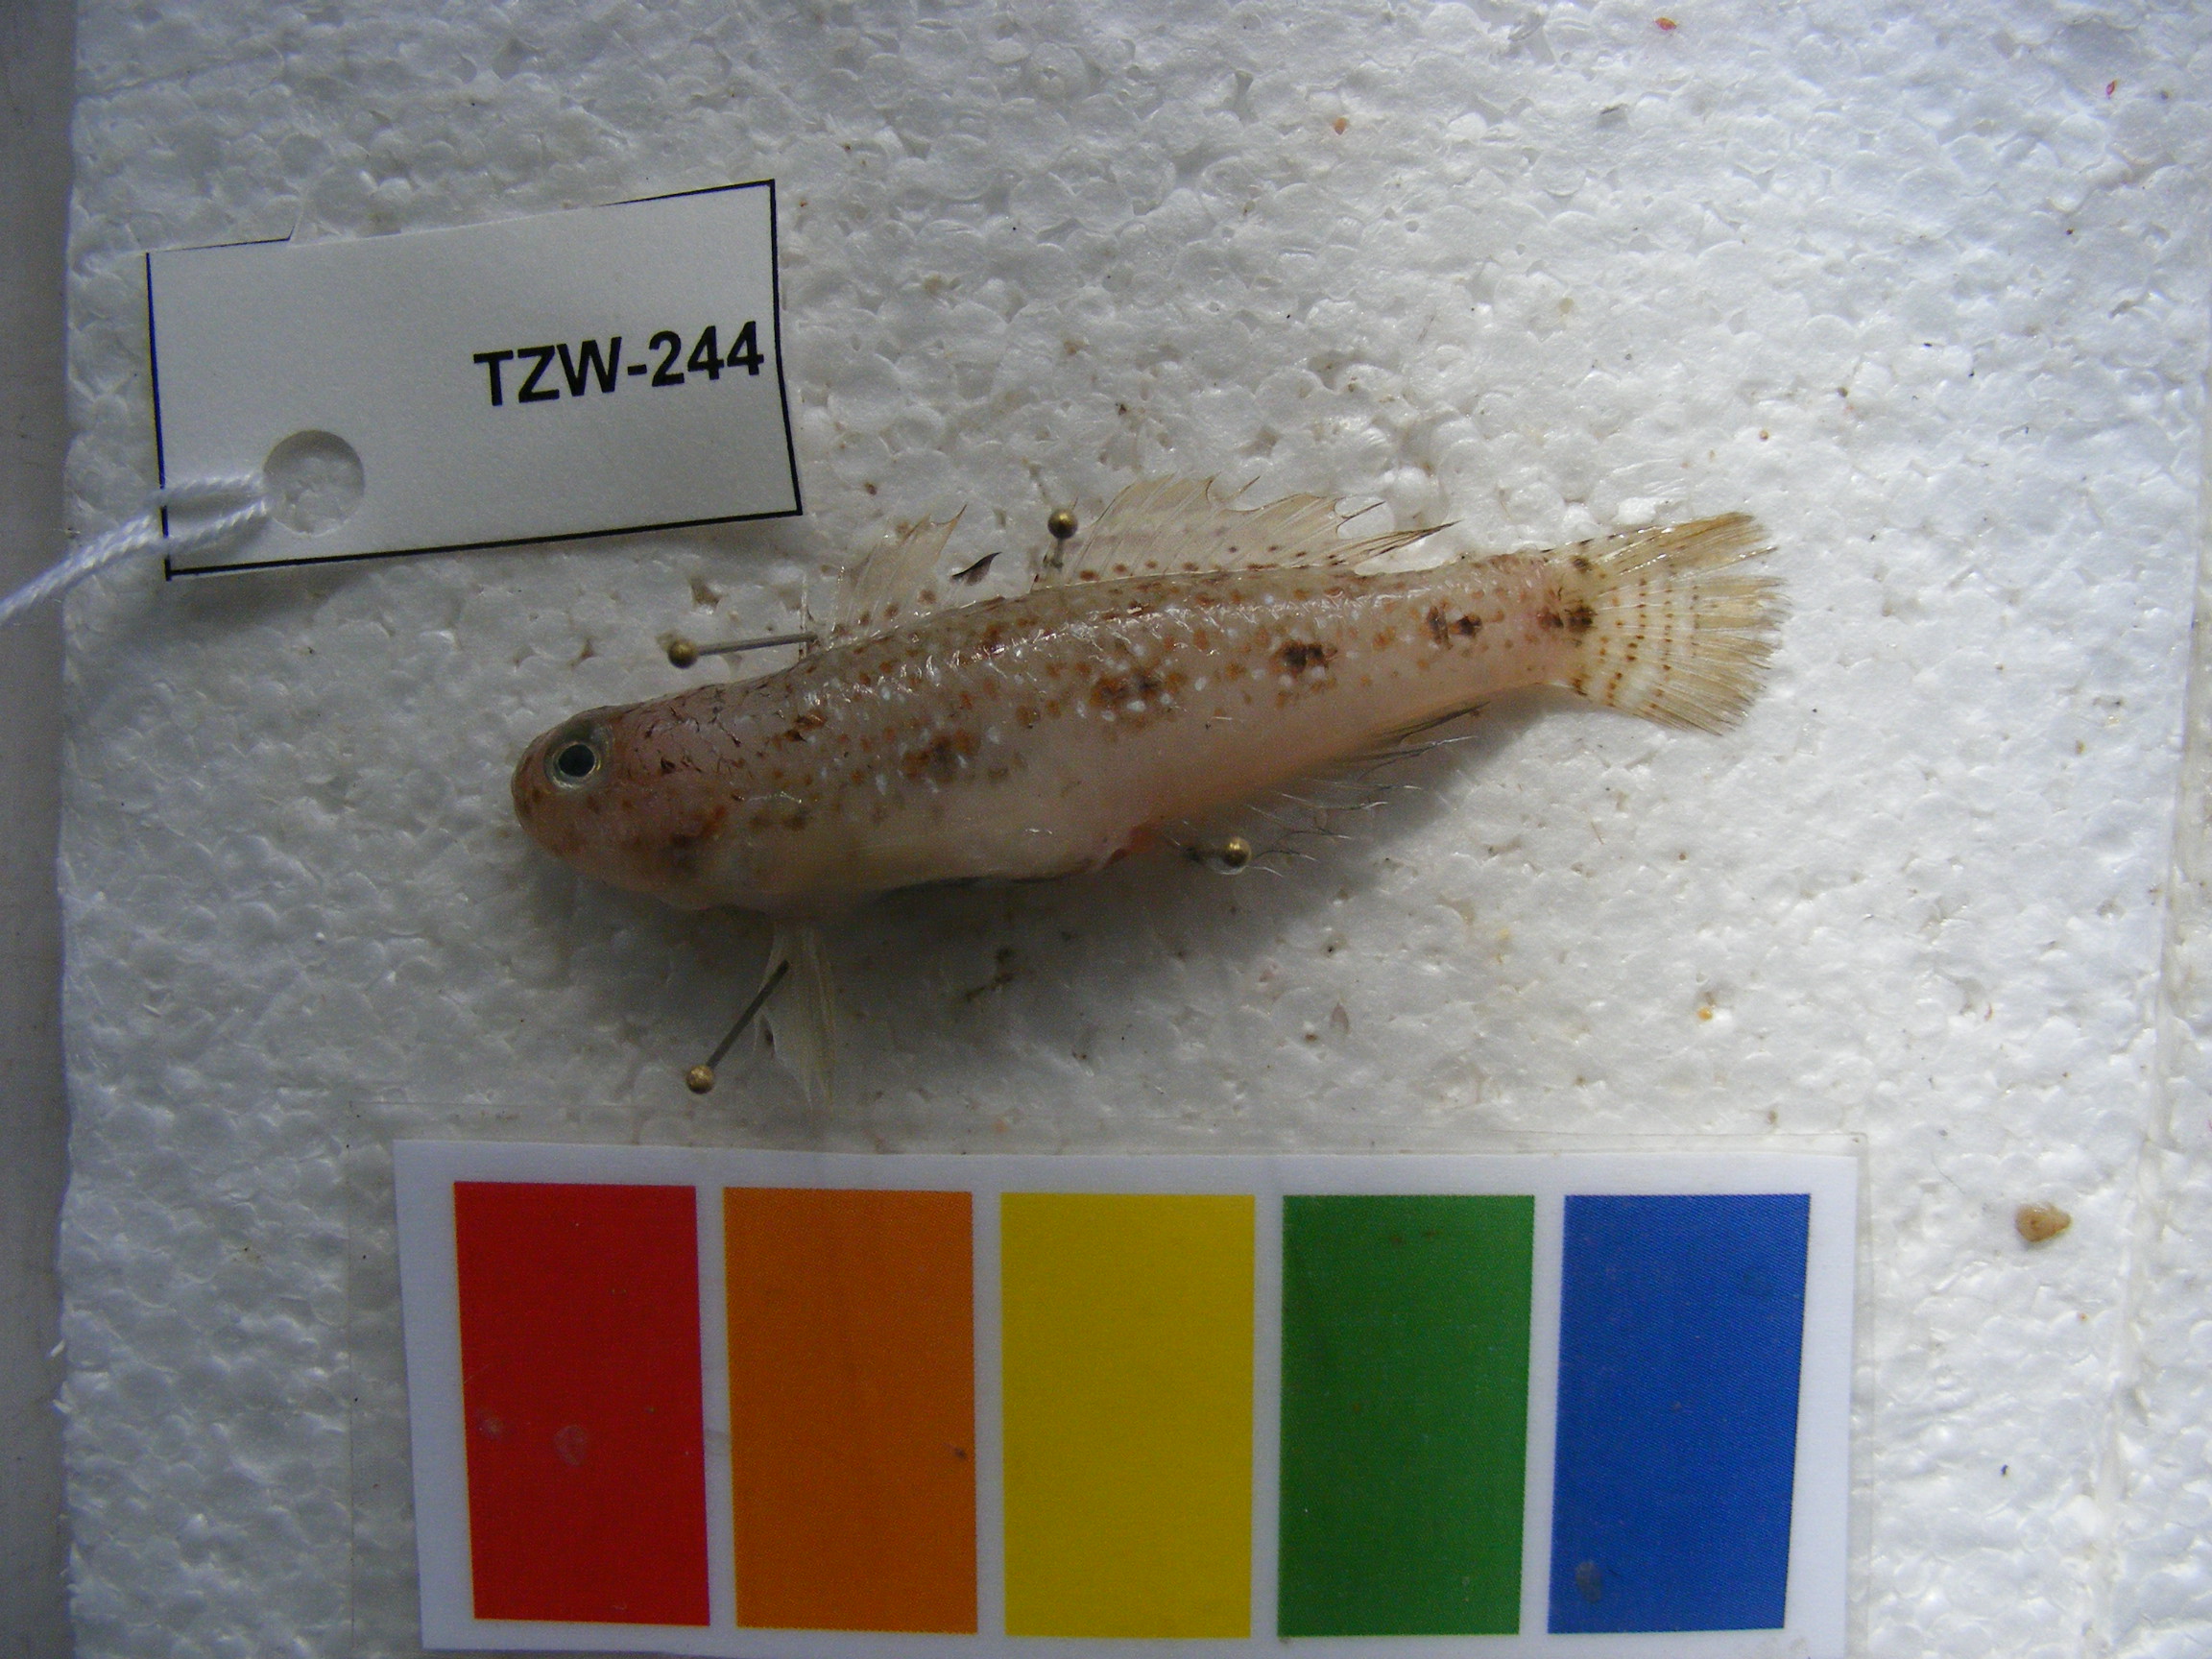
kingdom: Animalia
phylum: Chordata
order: Perciformes
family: Gobiidae
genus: Oplopomus
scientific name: Oplopomus oplopomus
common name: Spinecheek goby
